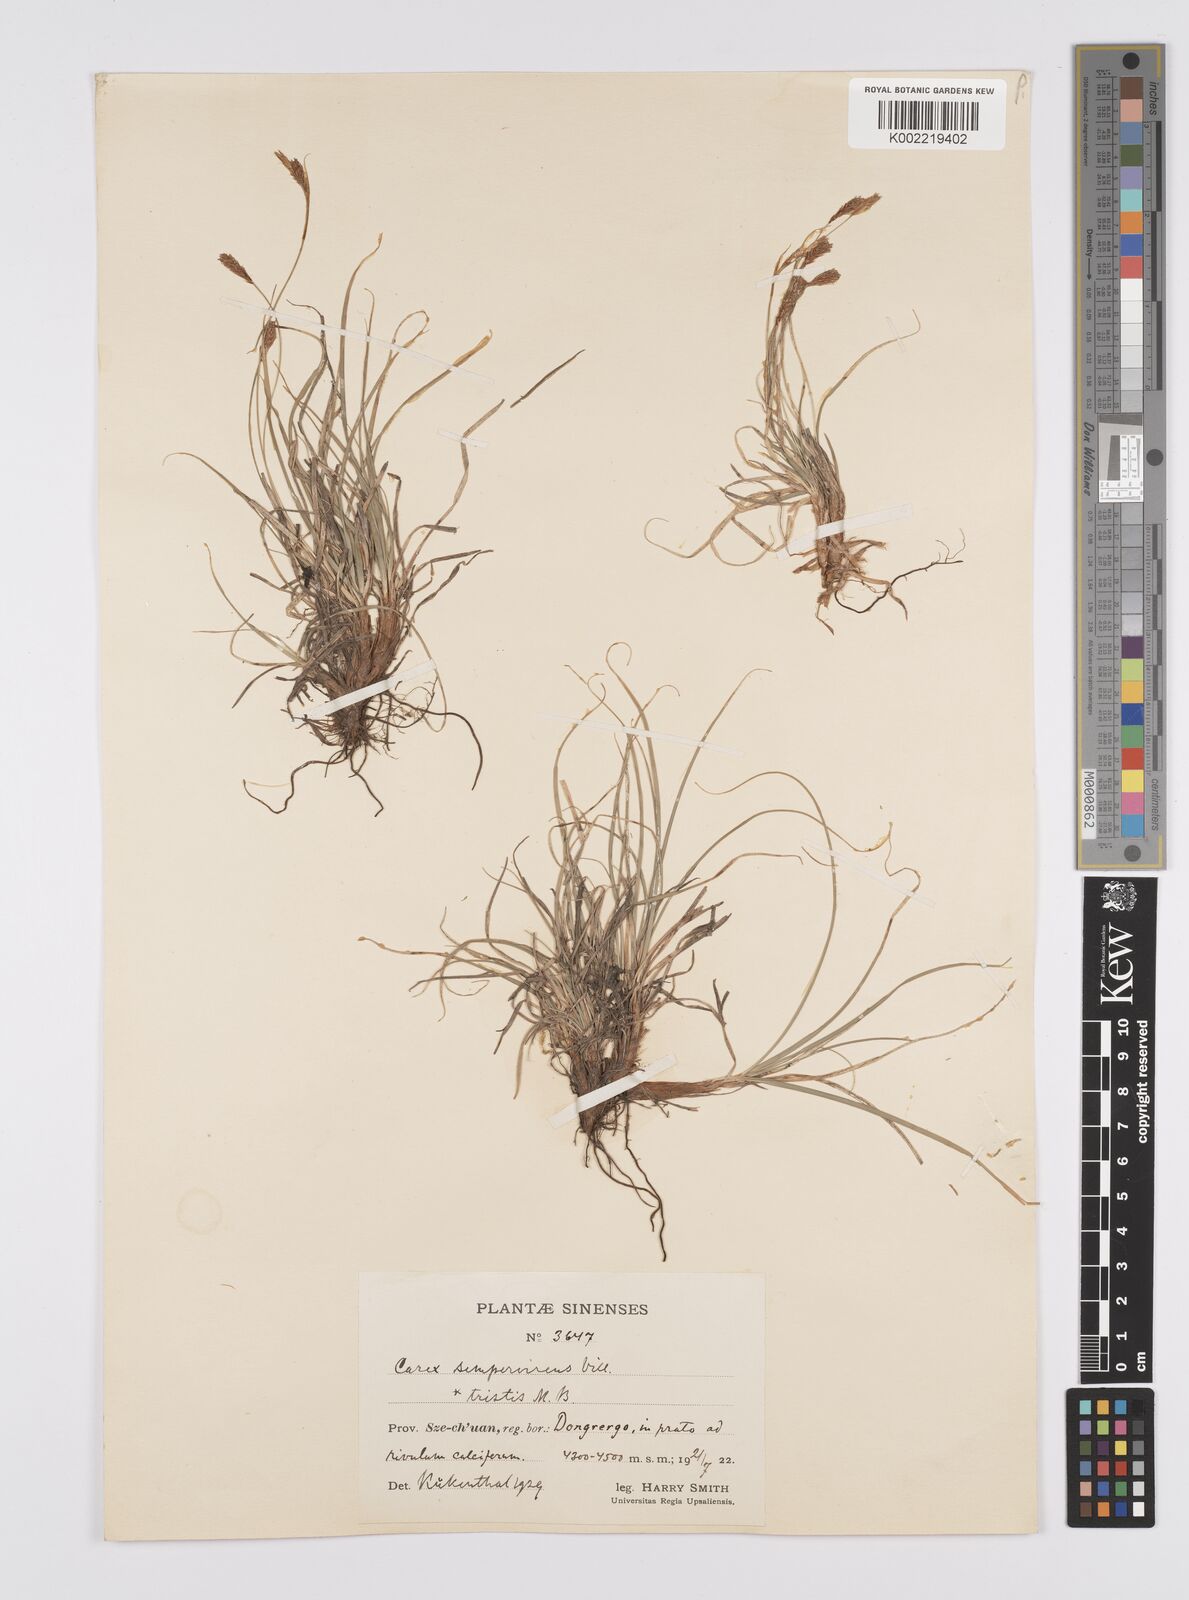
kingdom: Plantae
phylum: Tracheophyta
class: Liliopsida
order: Poales
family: Cyperaceae
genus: Carex
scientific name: Carex stenophylla
